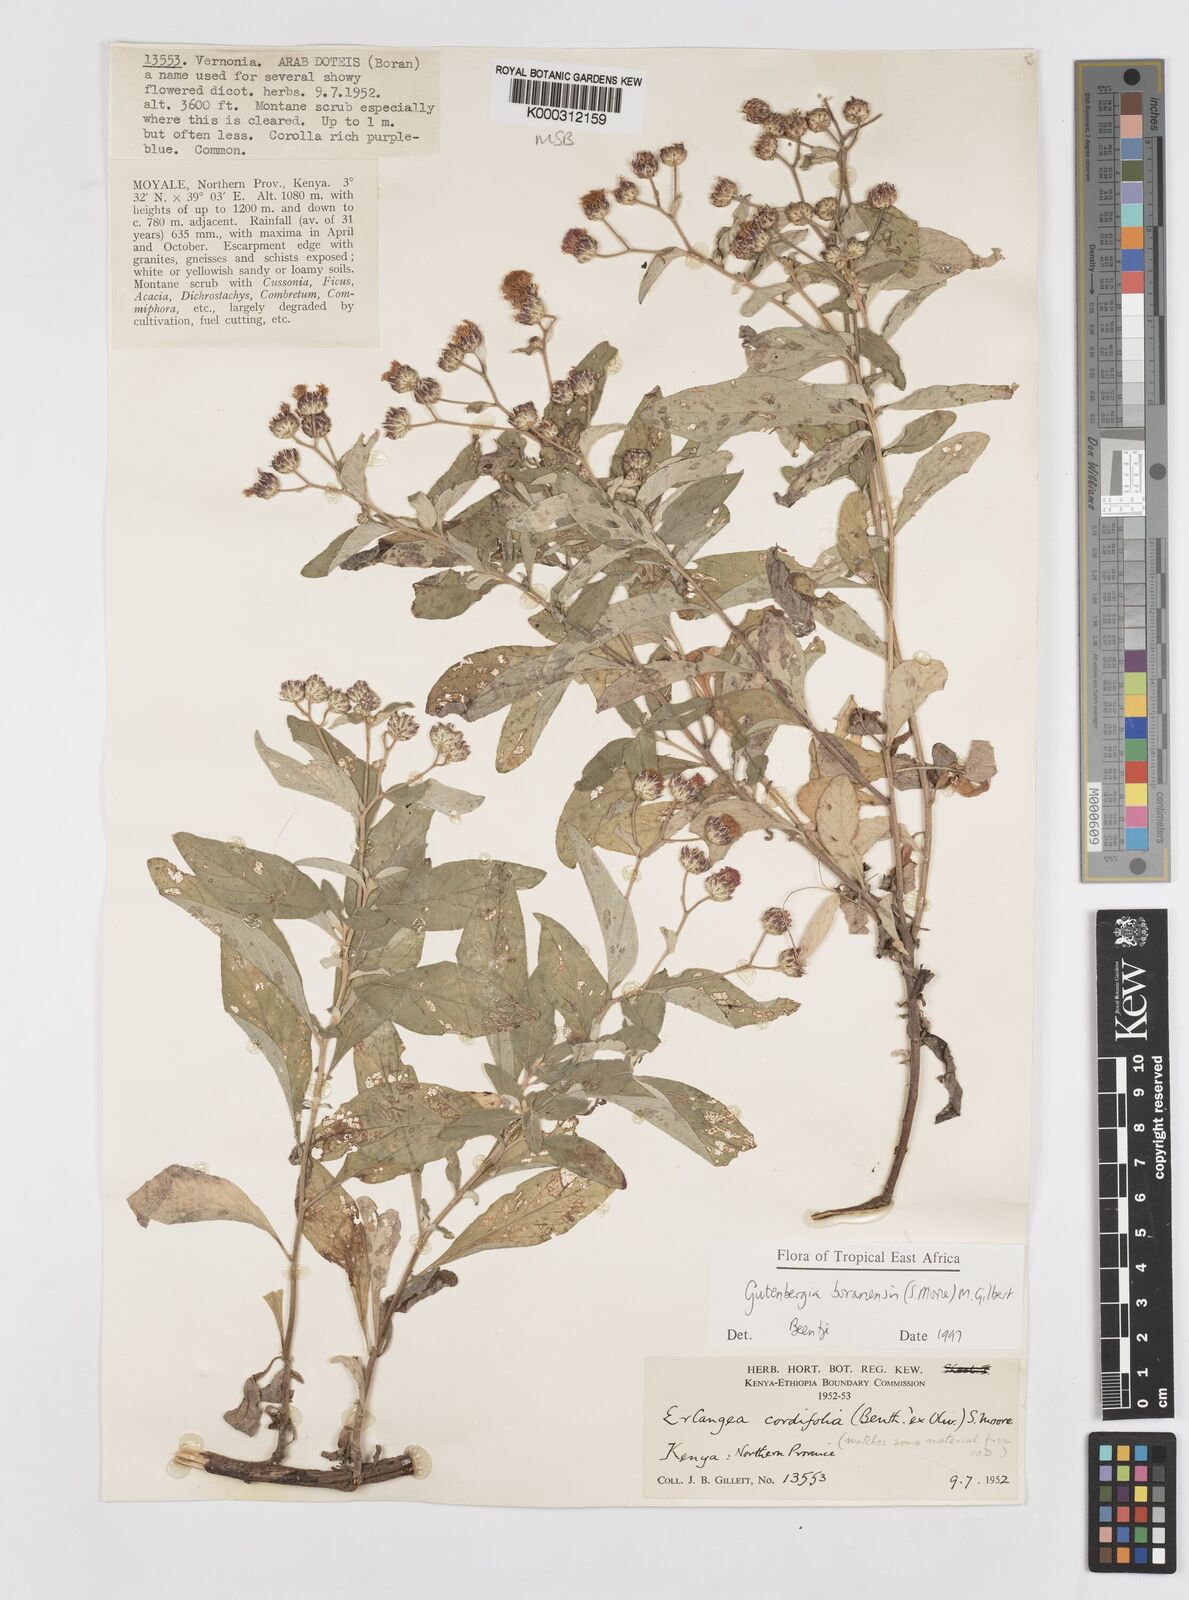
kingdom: Plantae
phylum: Tracheophyta
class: Magnoliopsida
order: Asterales
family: Asteraceae
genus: Gutenbergia
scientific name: Gutenbergia boranensis
